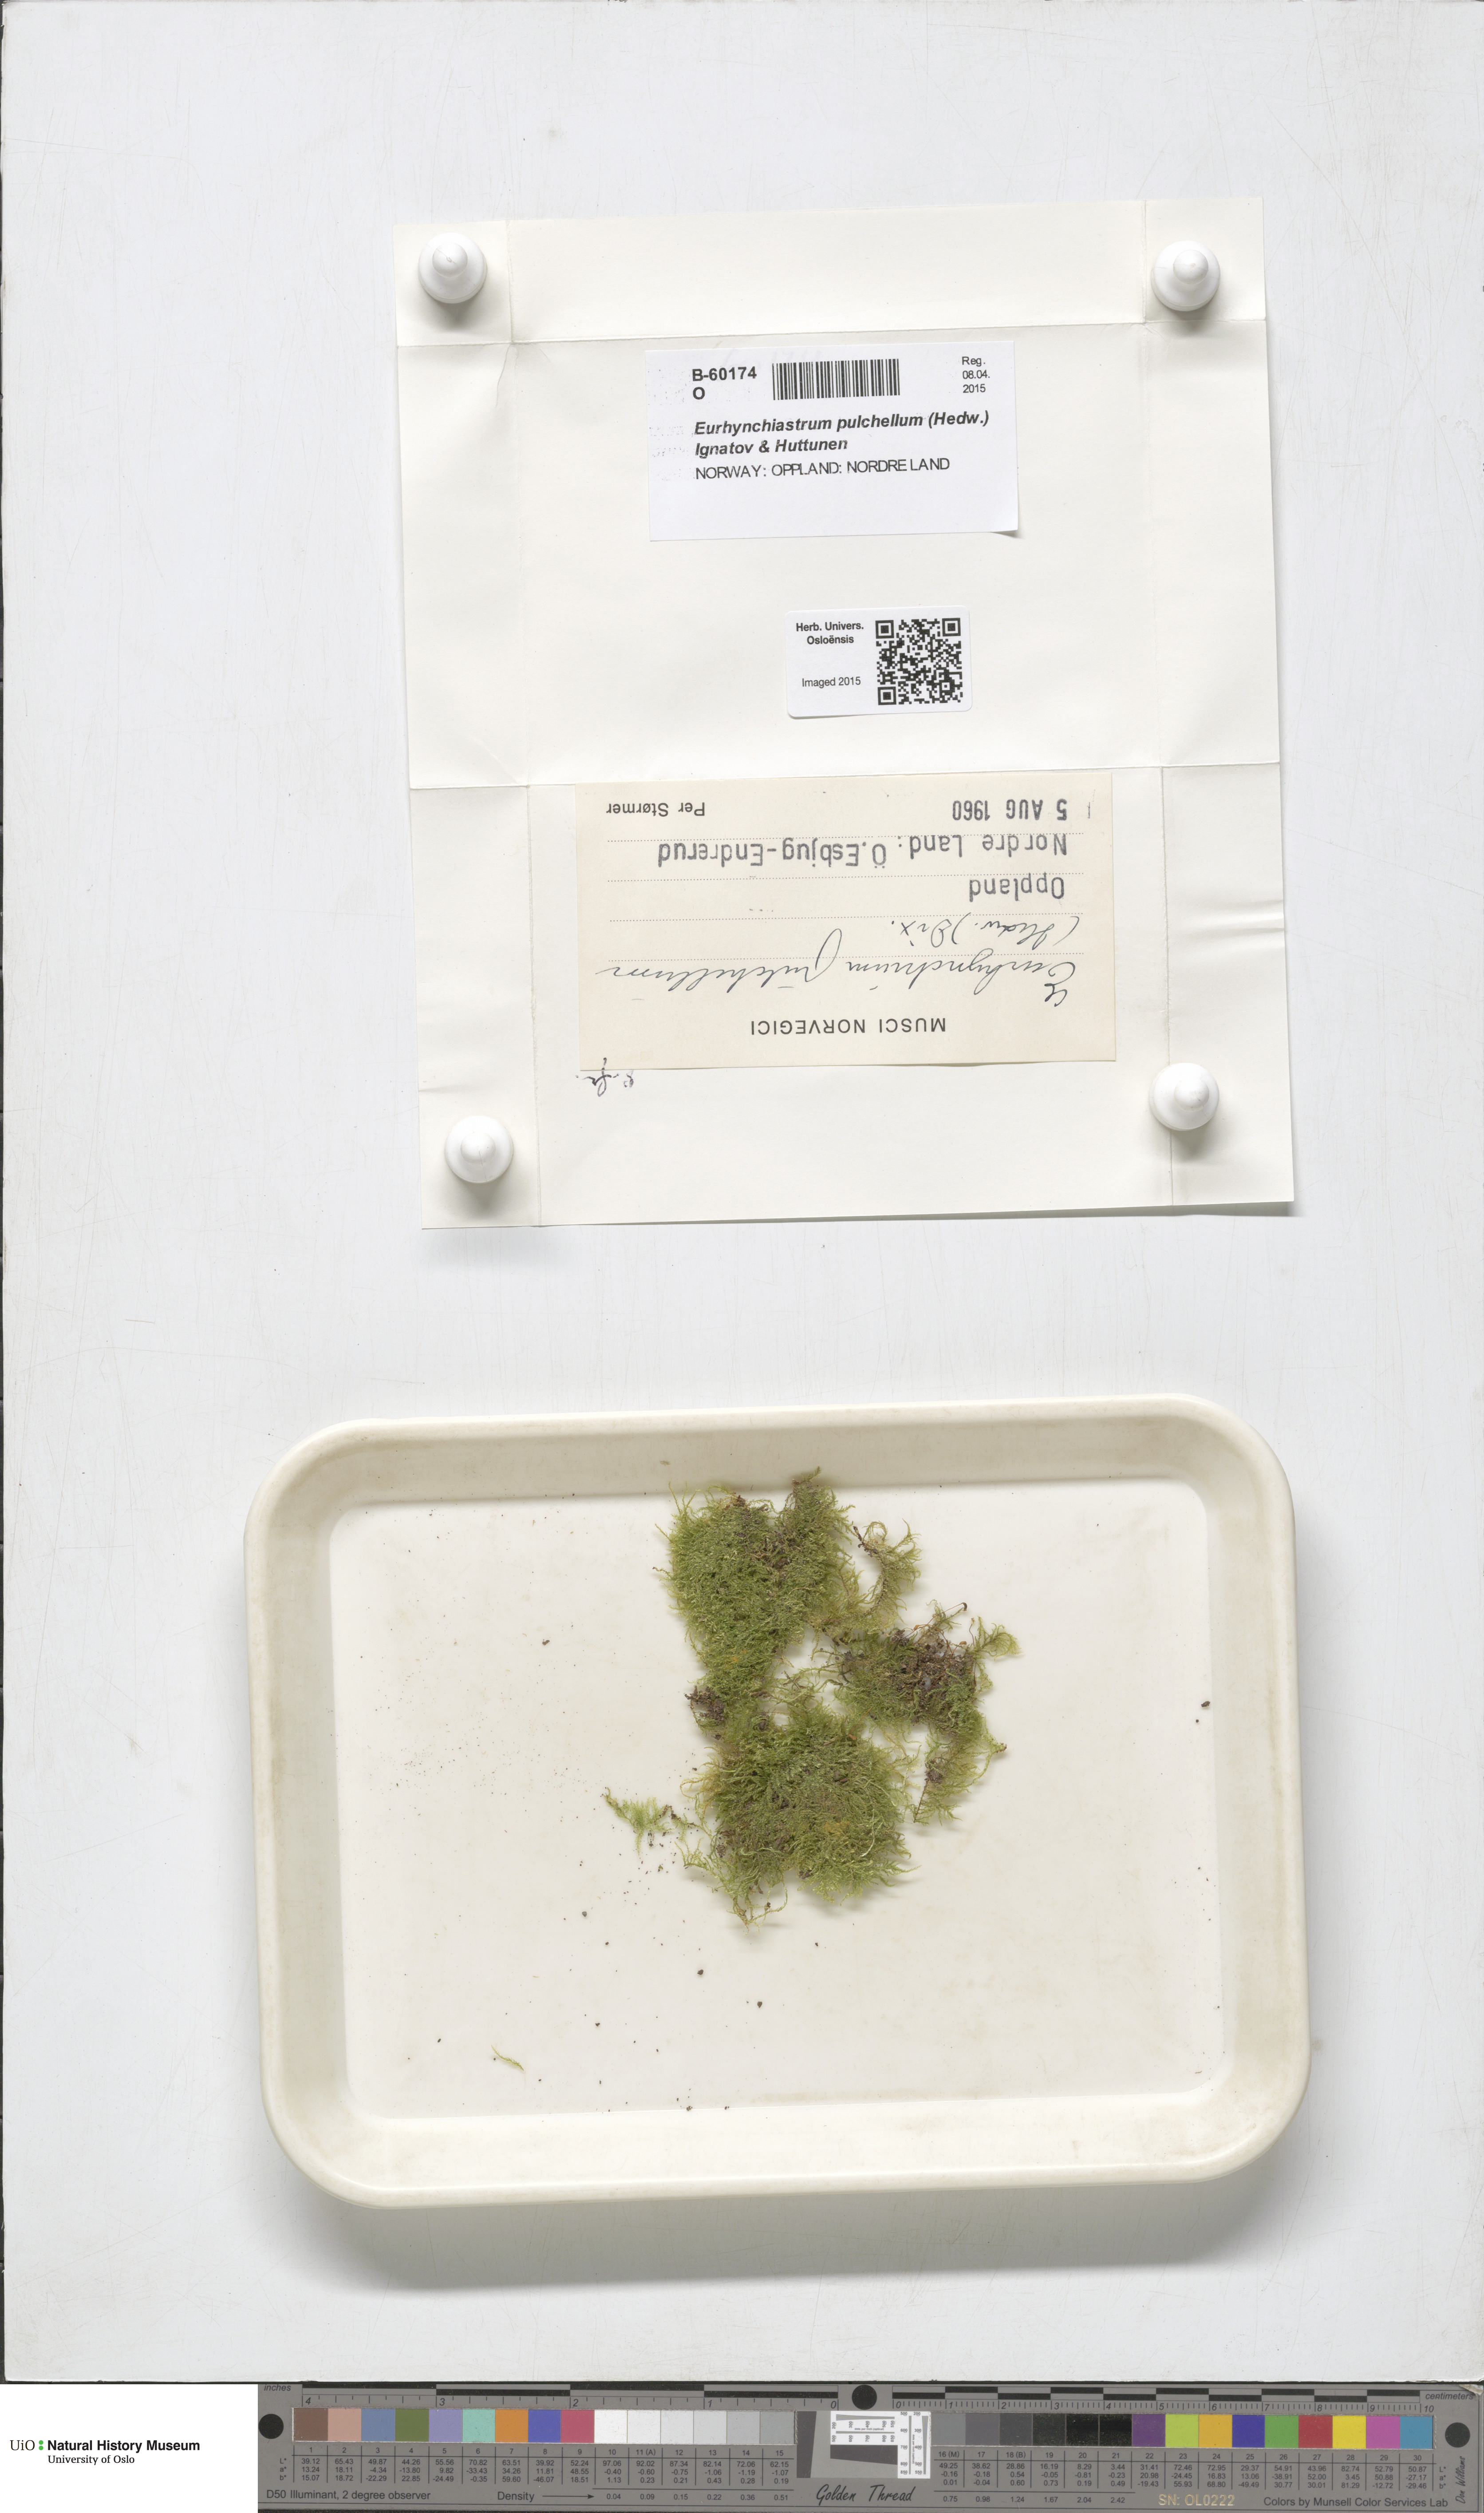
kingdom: Plantae
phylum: Bryophyta
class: Bryopsida
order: Hypnales
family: Brachytheciaceae
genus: Eurhynchiastrum
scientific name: Eurhynchiastrum pulchellum
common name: Elegant beaked moss
